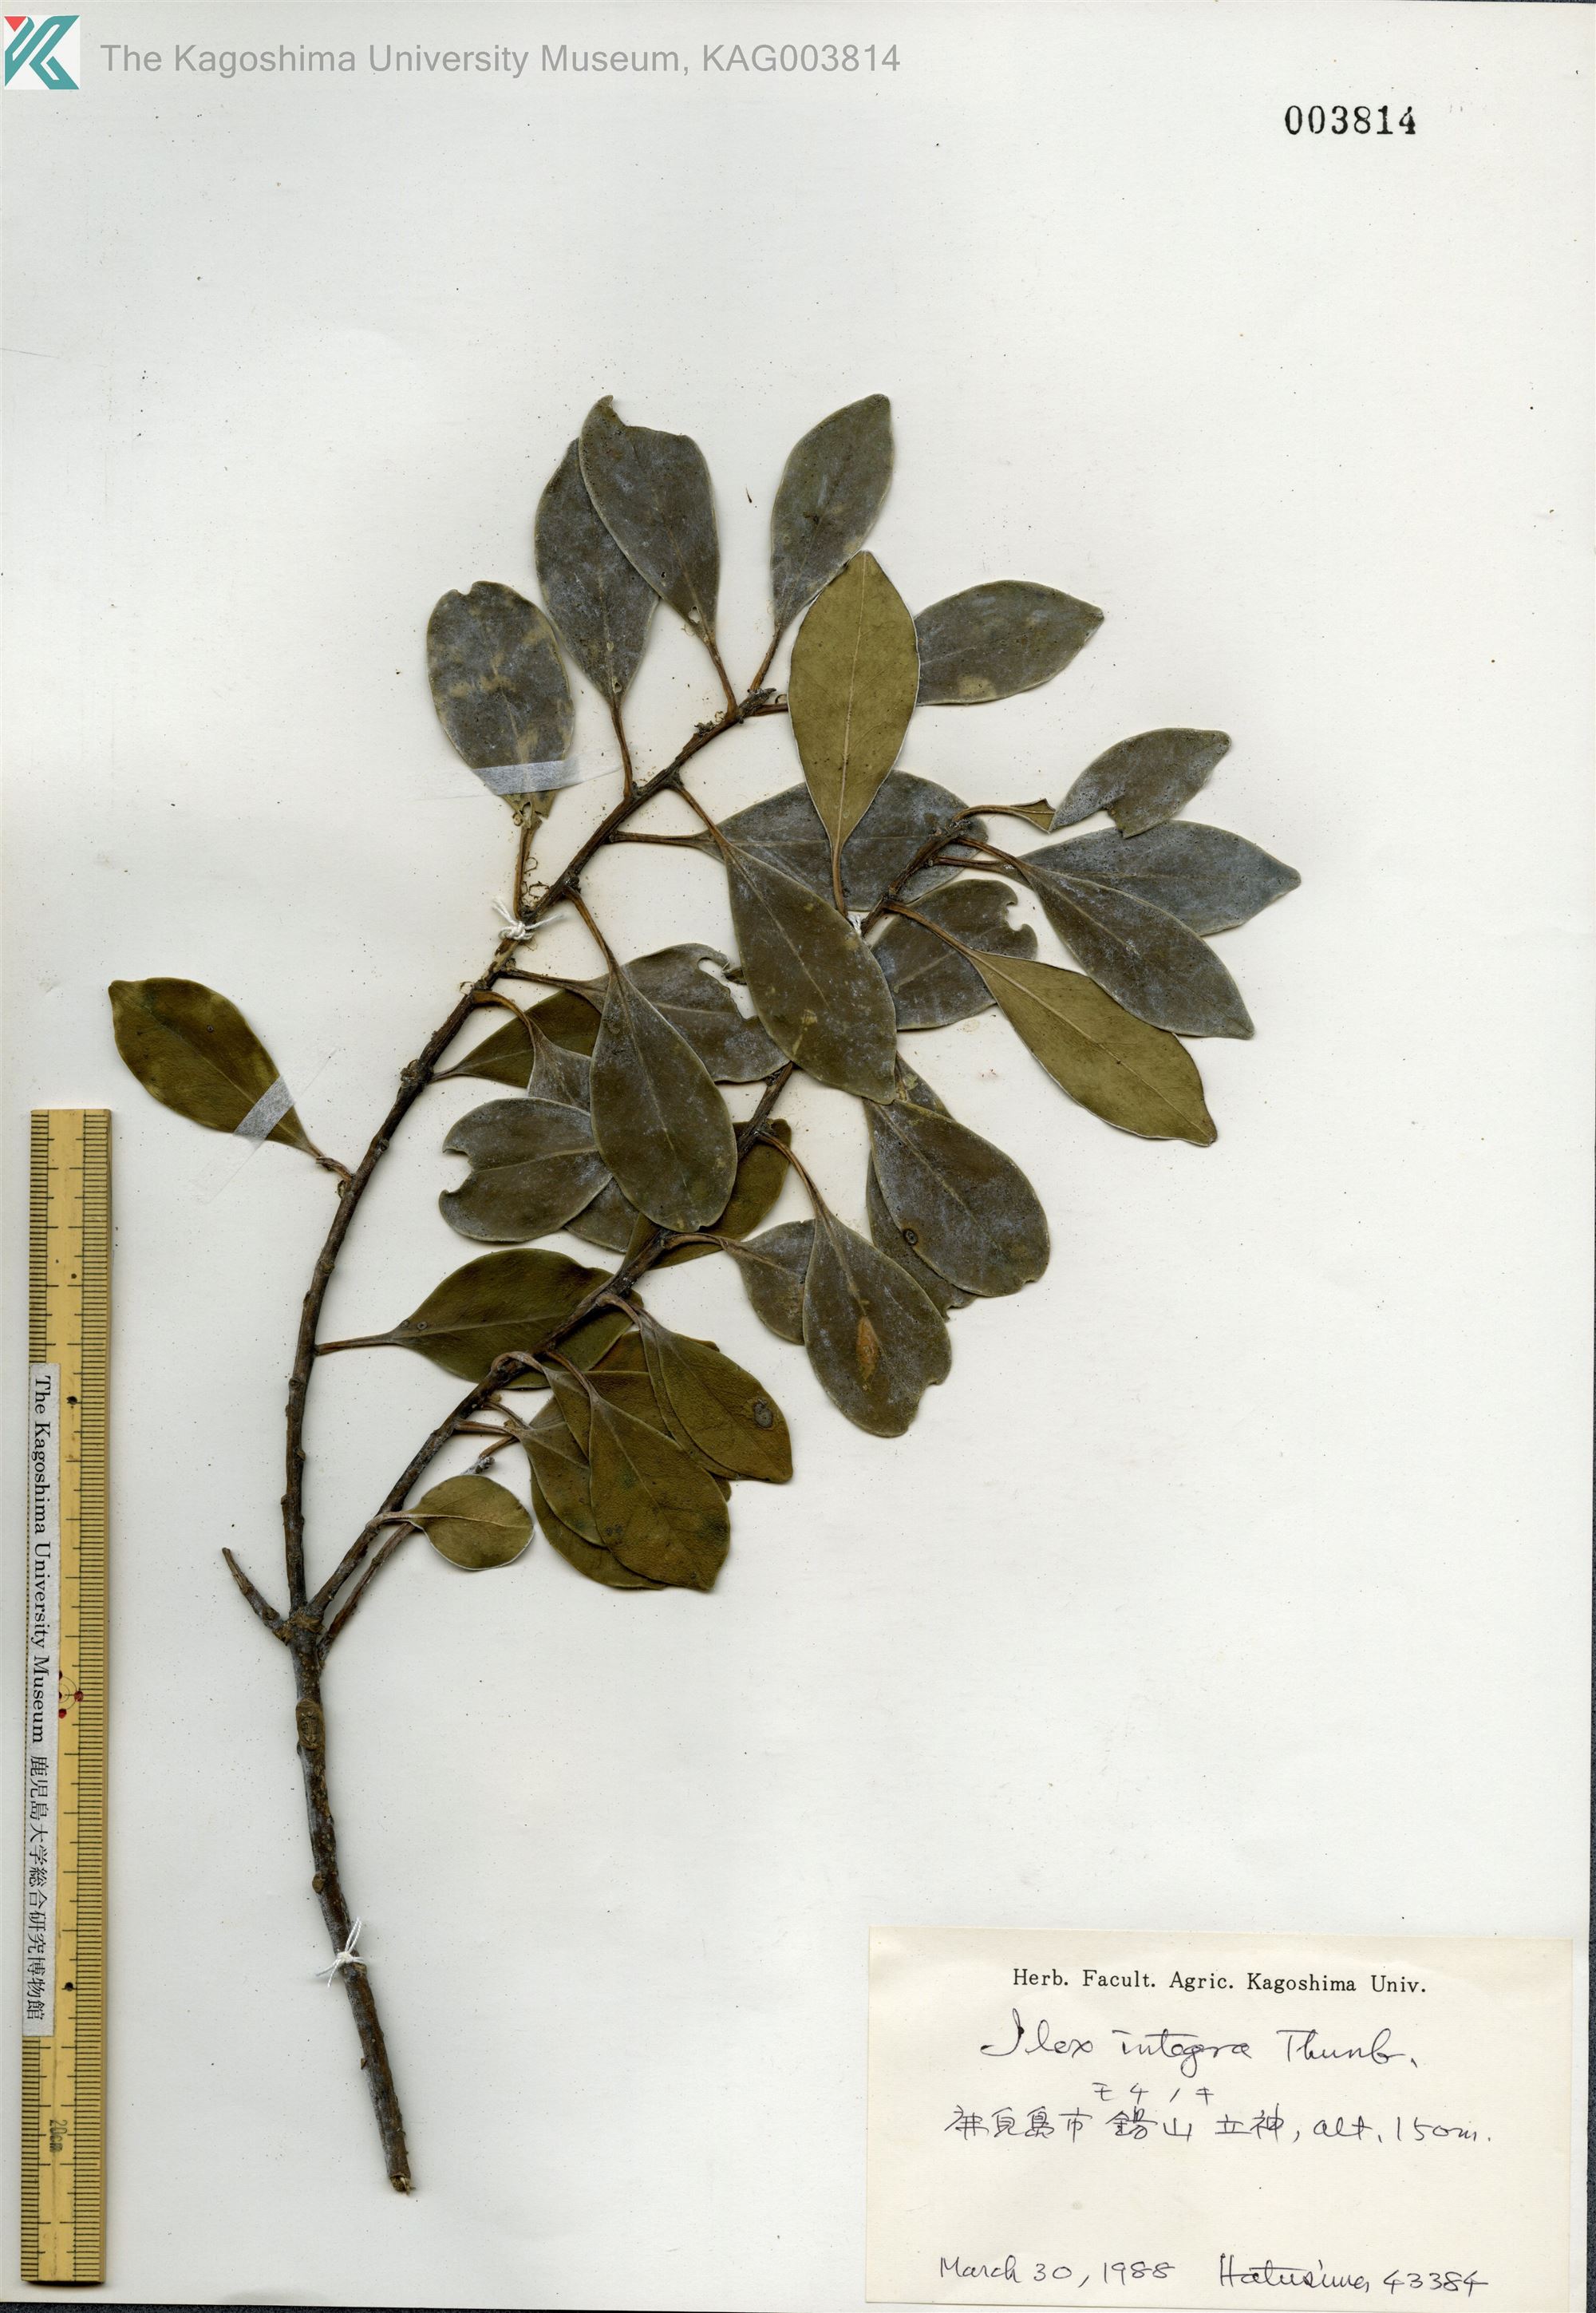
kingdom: Plantae
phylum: Tracheophyta
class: Magnoliopsida
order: Aquifoliales
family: Aquifoliaceae
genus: Ilex
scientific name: Ilex integra
